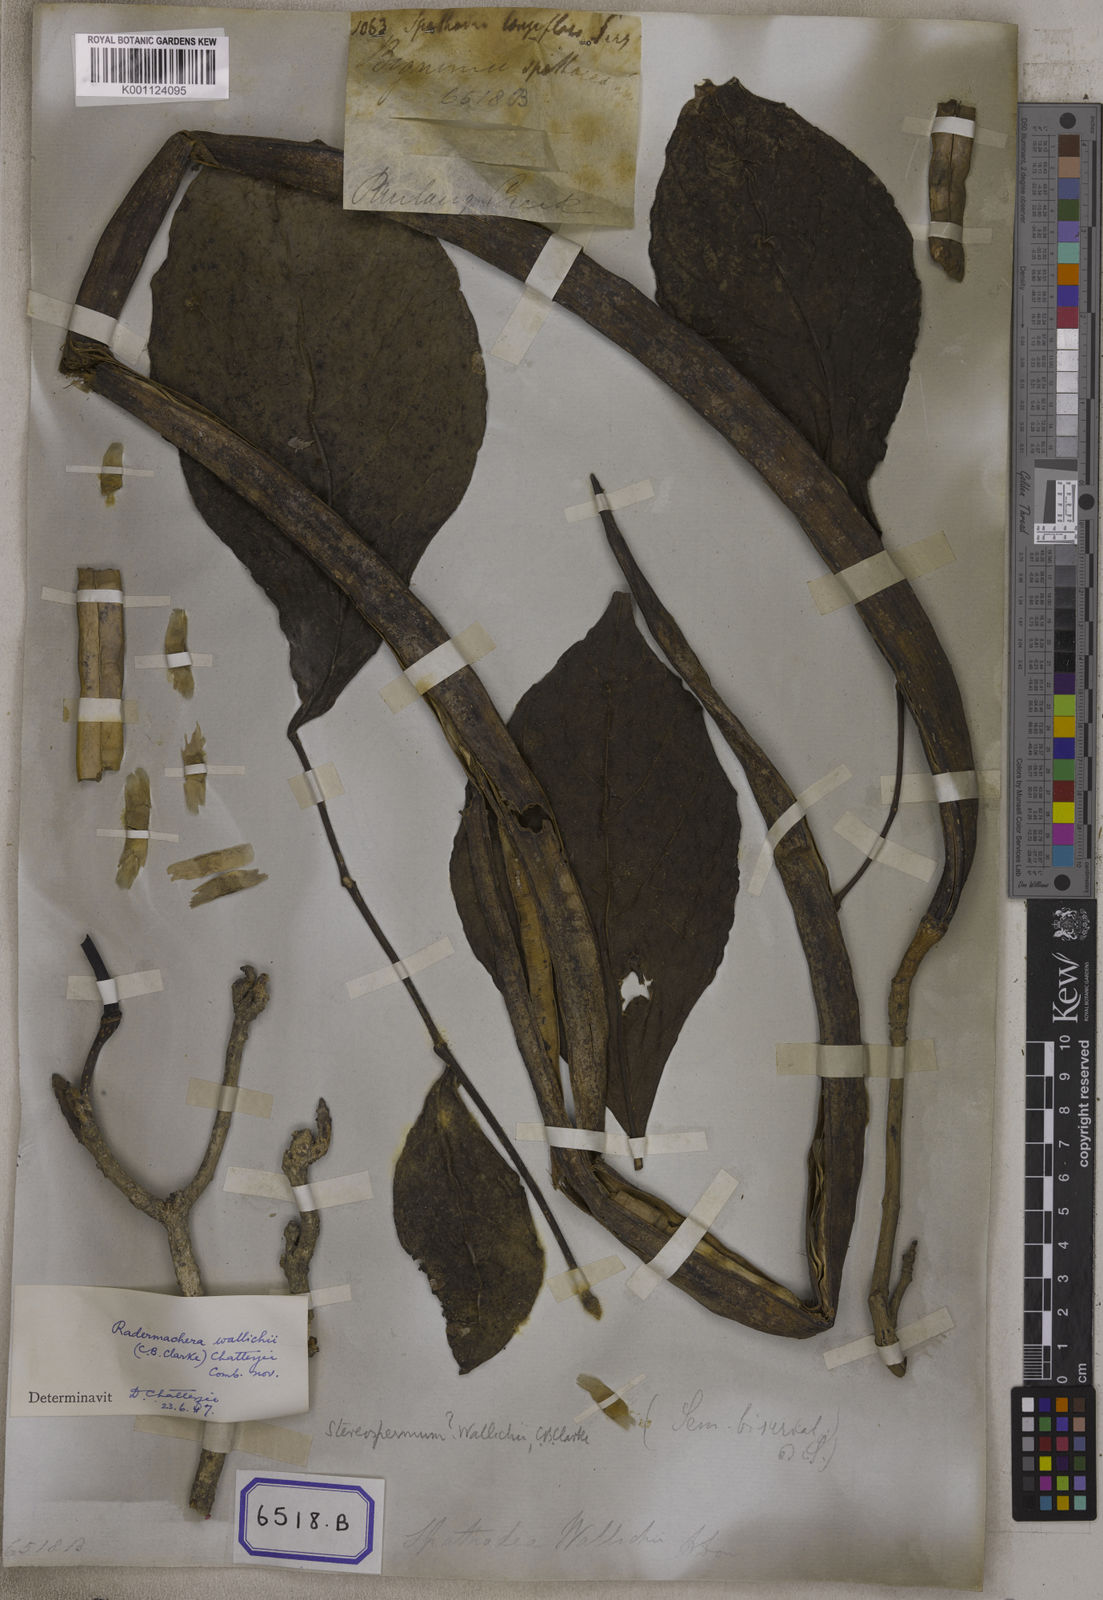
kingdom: Plantae
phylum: Tracheophyta
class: Magnoliopsida
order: Lamiales
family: Bignoniaceae
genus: Markhamia
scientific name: Markhamia stipulata
